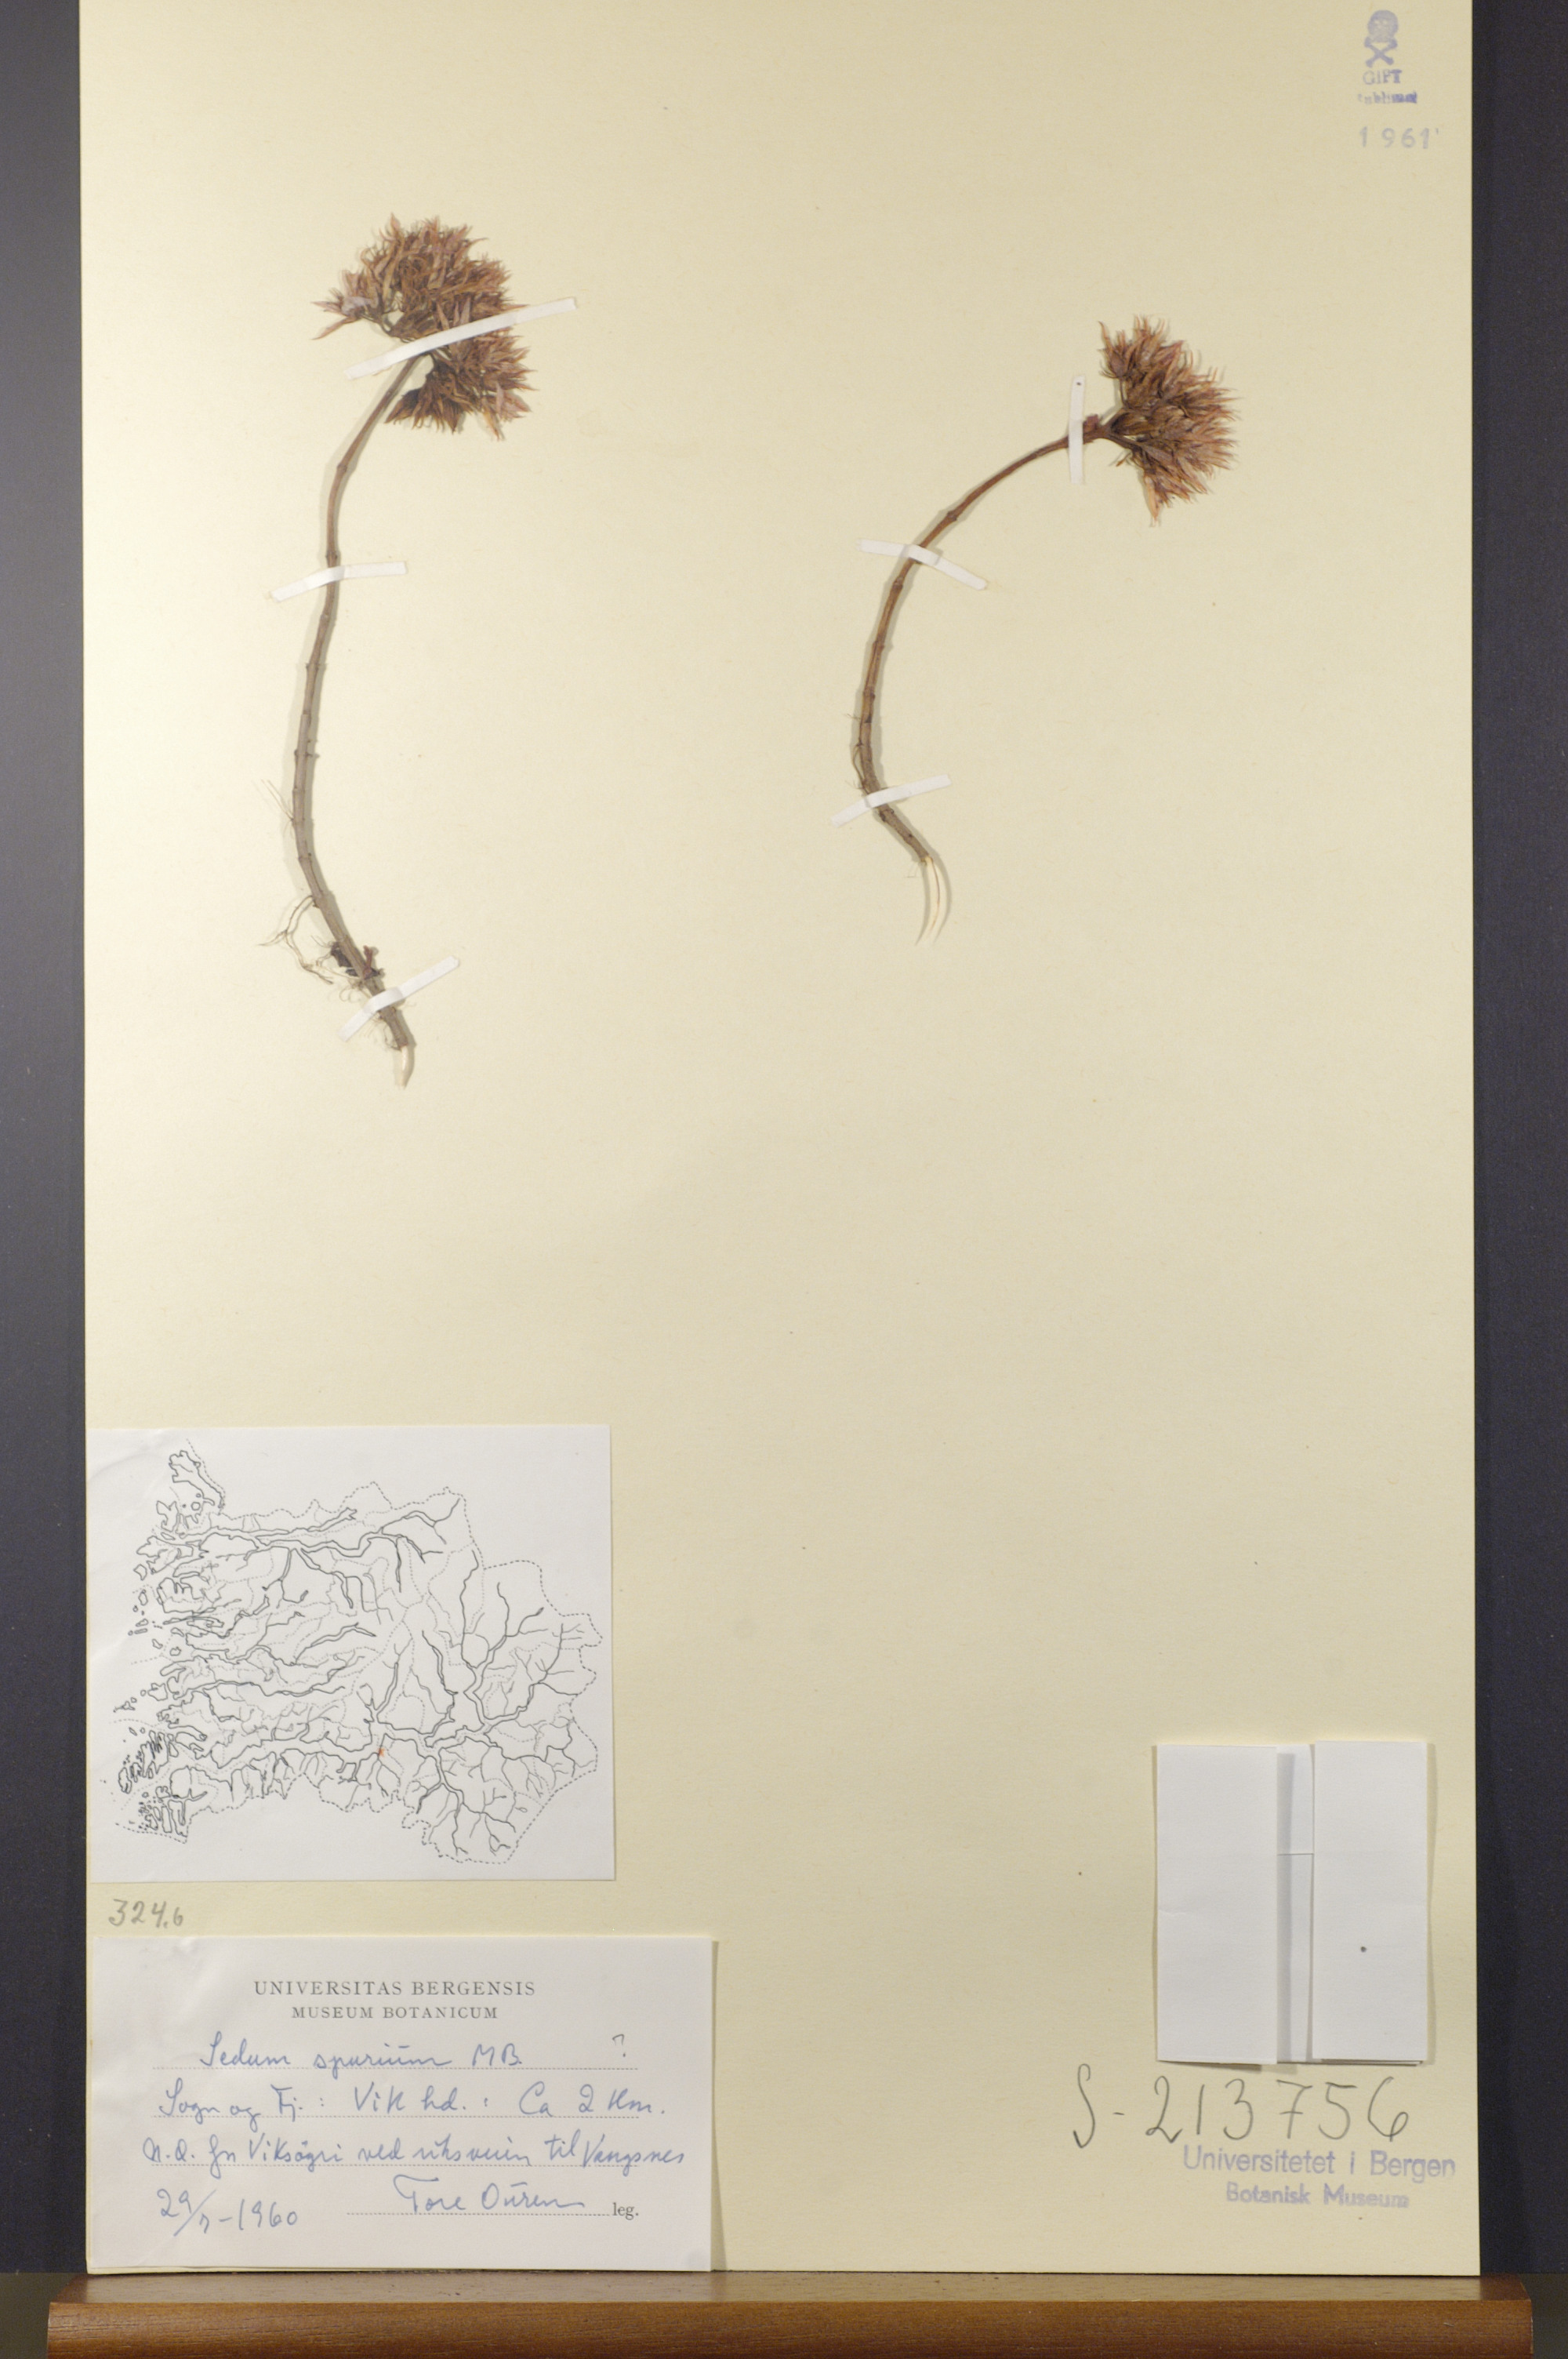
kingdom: Plantae
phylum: Tracheophyta
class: Magnoliopsida
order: Saxifragales
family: Crassulaceae
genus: Phedimus
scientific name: Phedimus spurius
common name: Caucasian stonecrop
